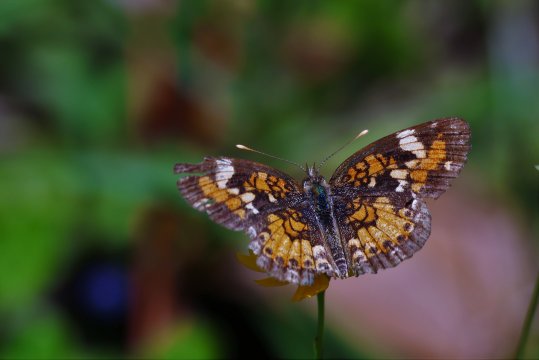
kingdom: Animalia
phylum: Arthropoda
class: Insecta
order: Lepidoptera
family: Nymphalidae
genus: Phyciodes
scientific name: Phyciodes phaon
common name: Phaon Crescent
